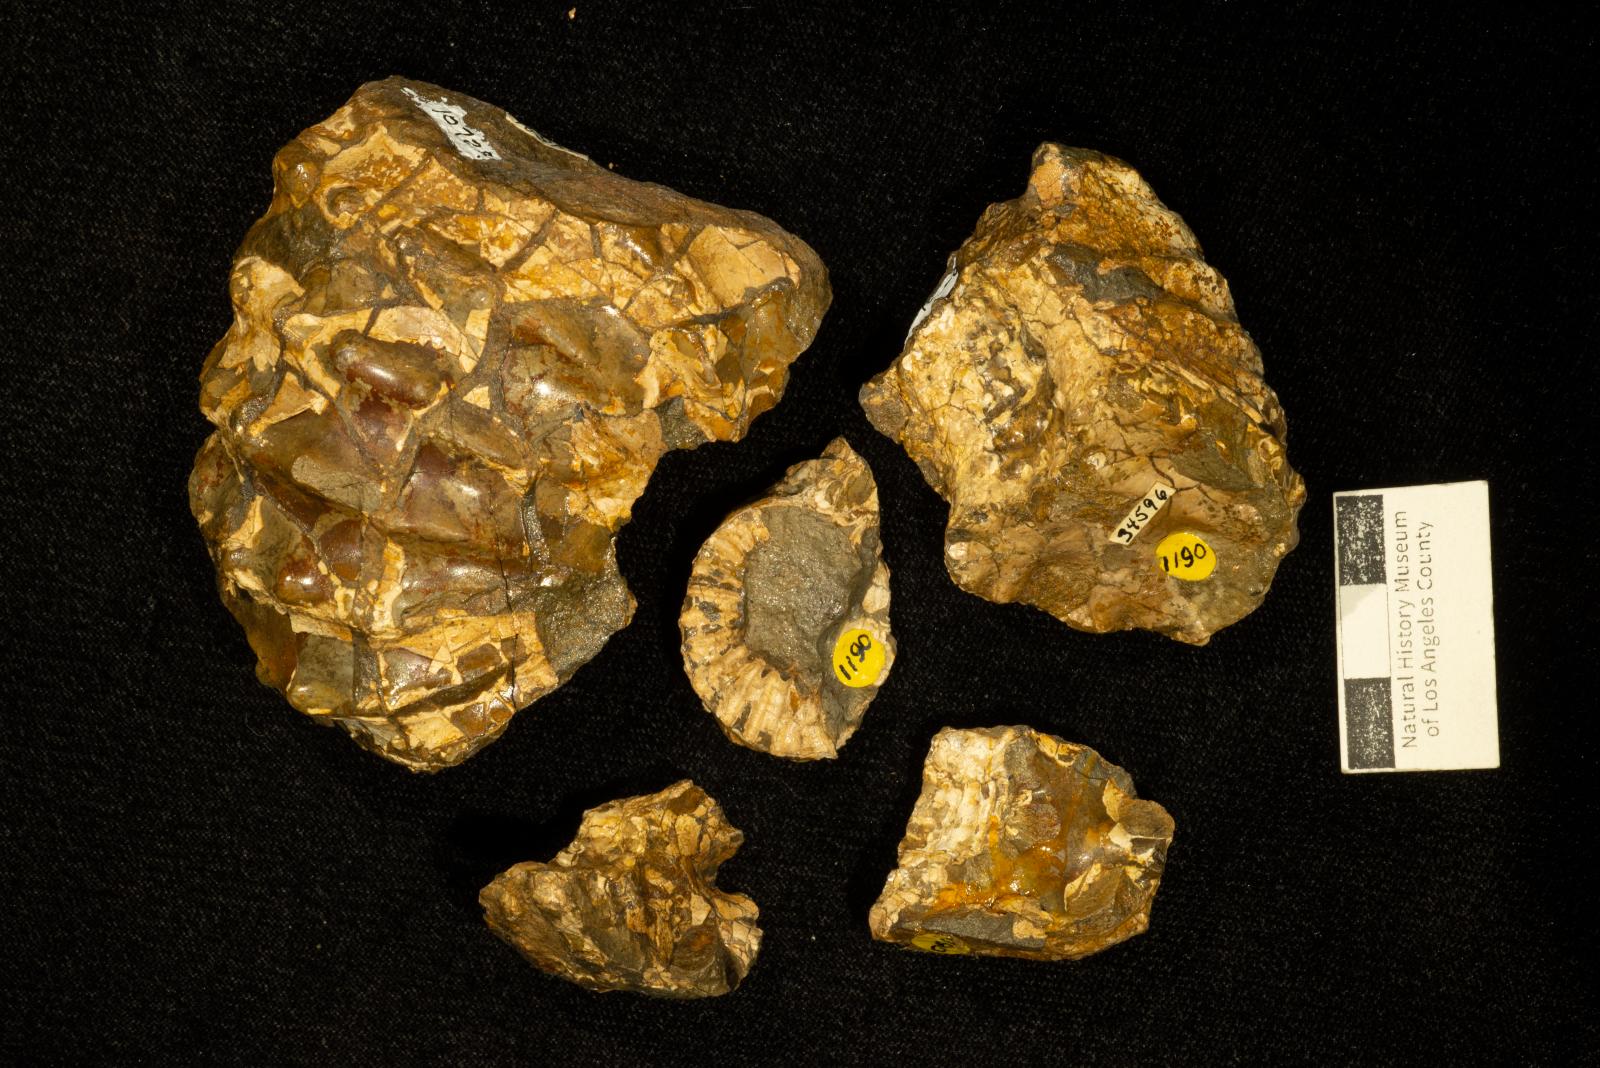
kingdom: Animalia
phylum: Mollusca
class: Cephalopoda
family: Acanthoceratidae
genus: Romaniceras
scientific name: Romaniceras
